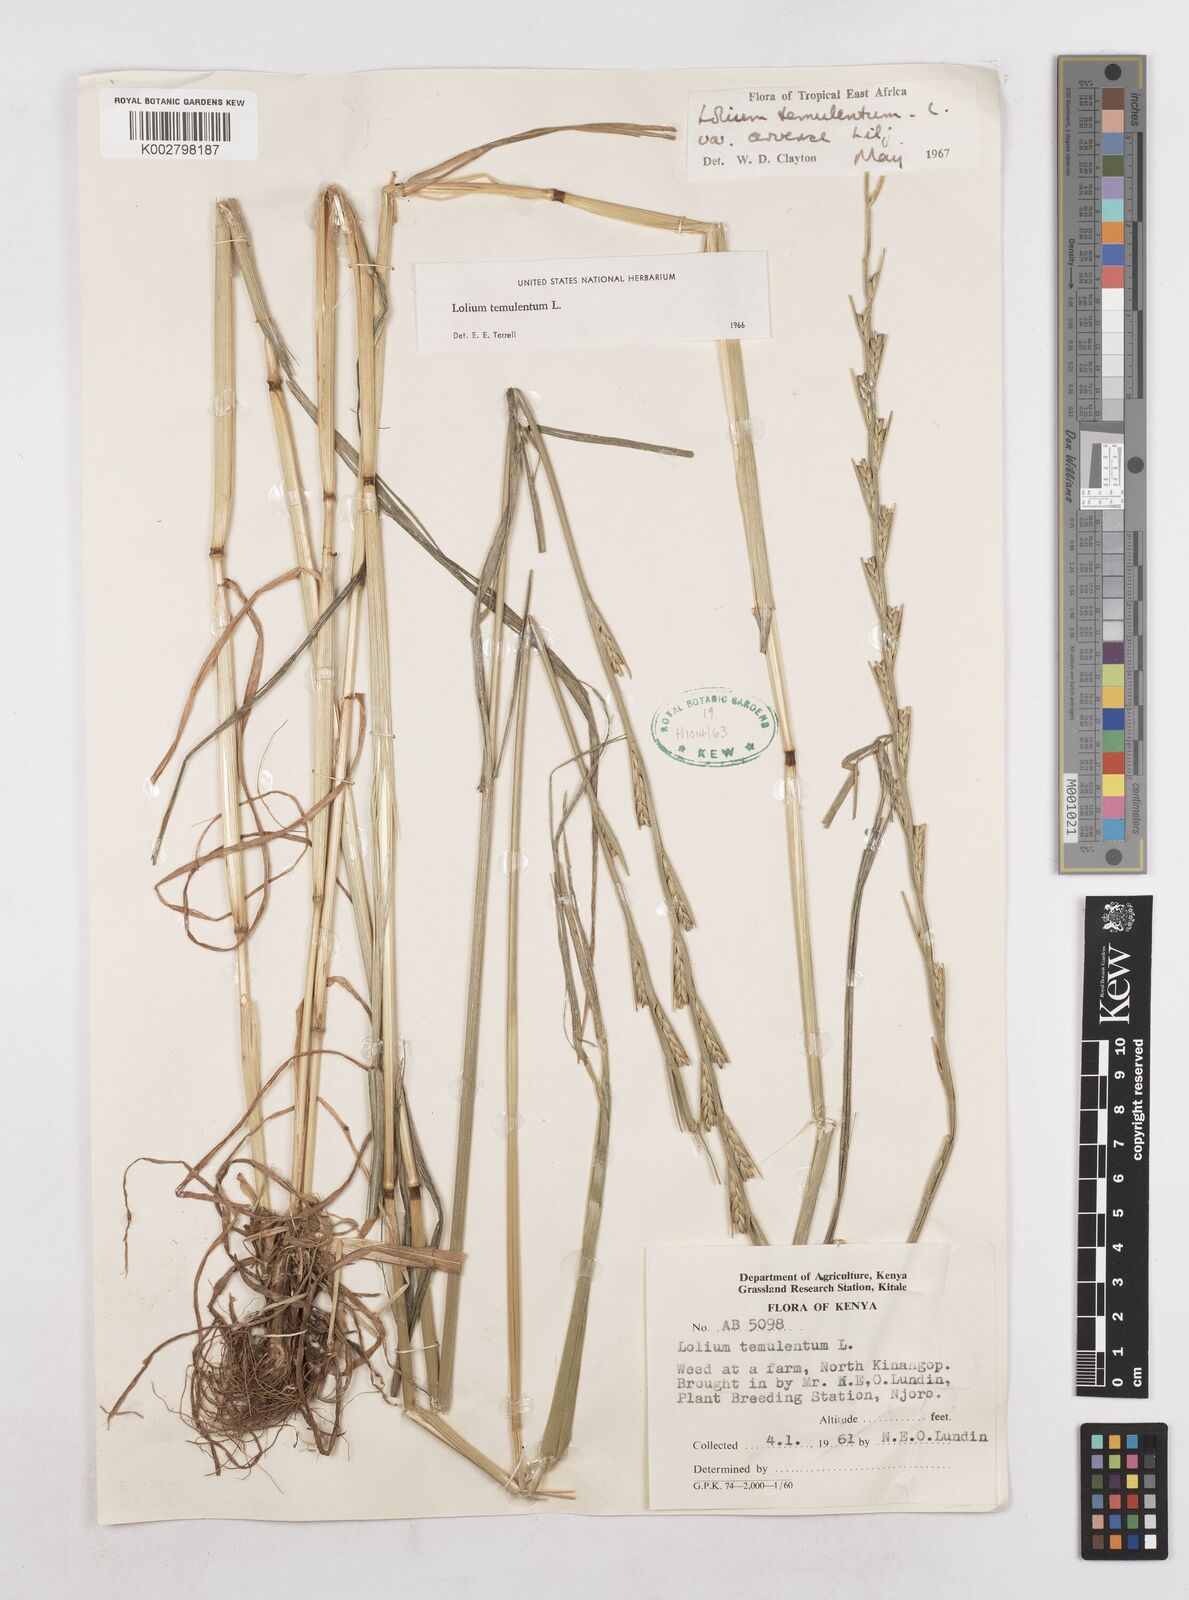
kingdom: Plantae
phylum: Tracheophyta
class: Liliopsida
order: Poales
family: Poaceae
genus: Lolium
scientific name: Lolium temulentum
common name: Darnel
